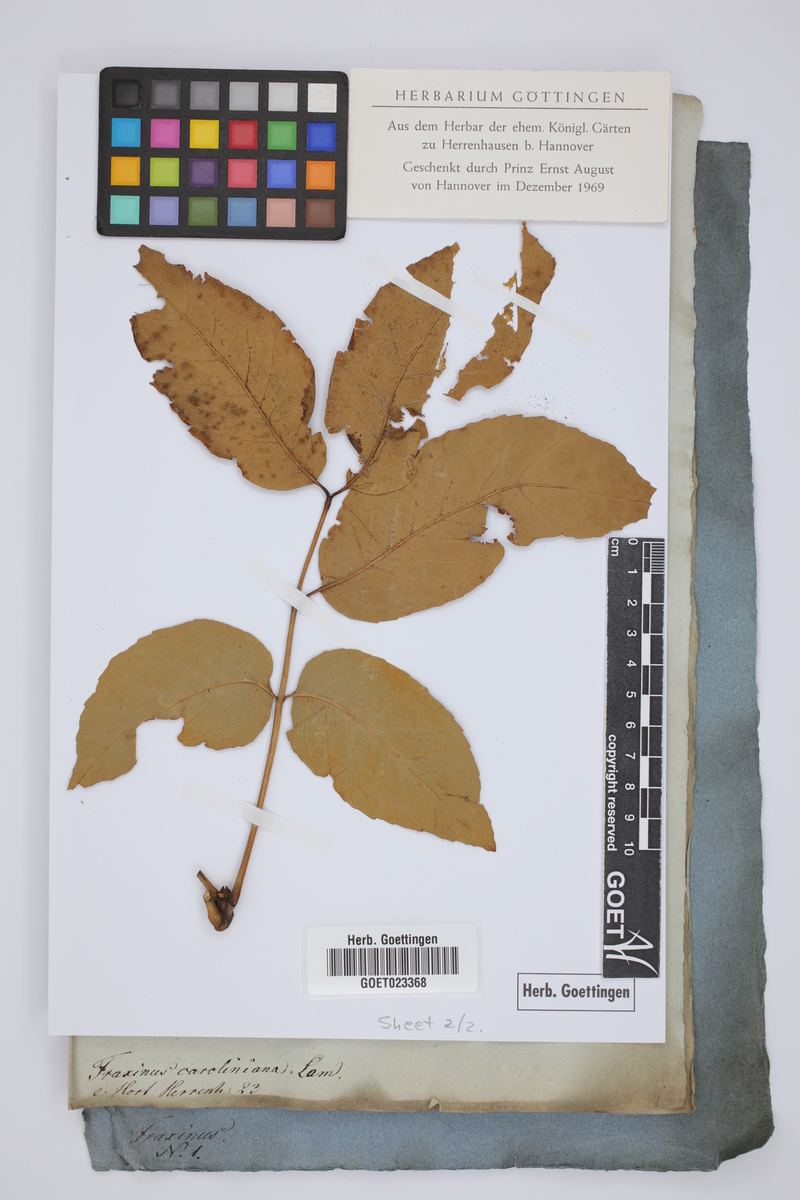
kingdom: Plantae
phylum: Tracheophyta
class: Magnoliopsida
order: Lamiales
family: Oleaceae
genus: Fraxinus
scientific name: Fraxinus americana
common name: White ash
